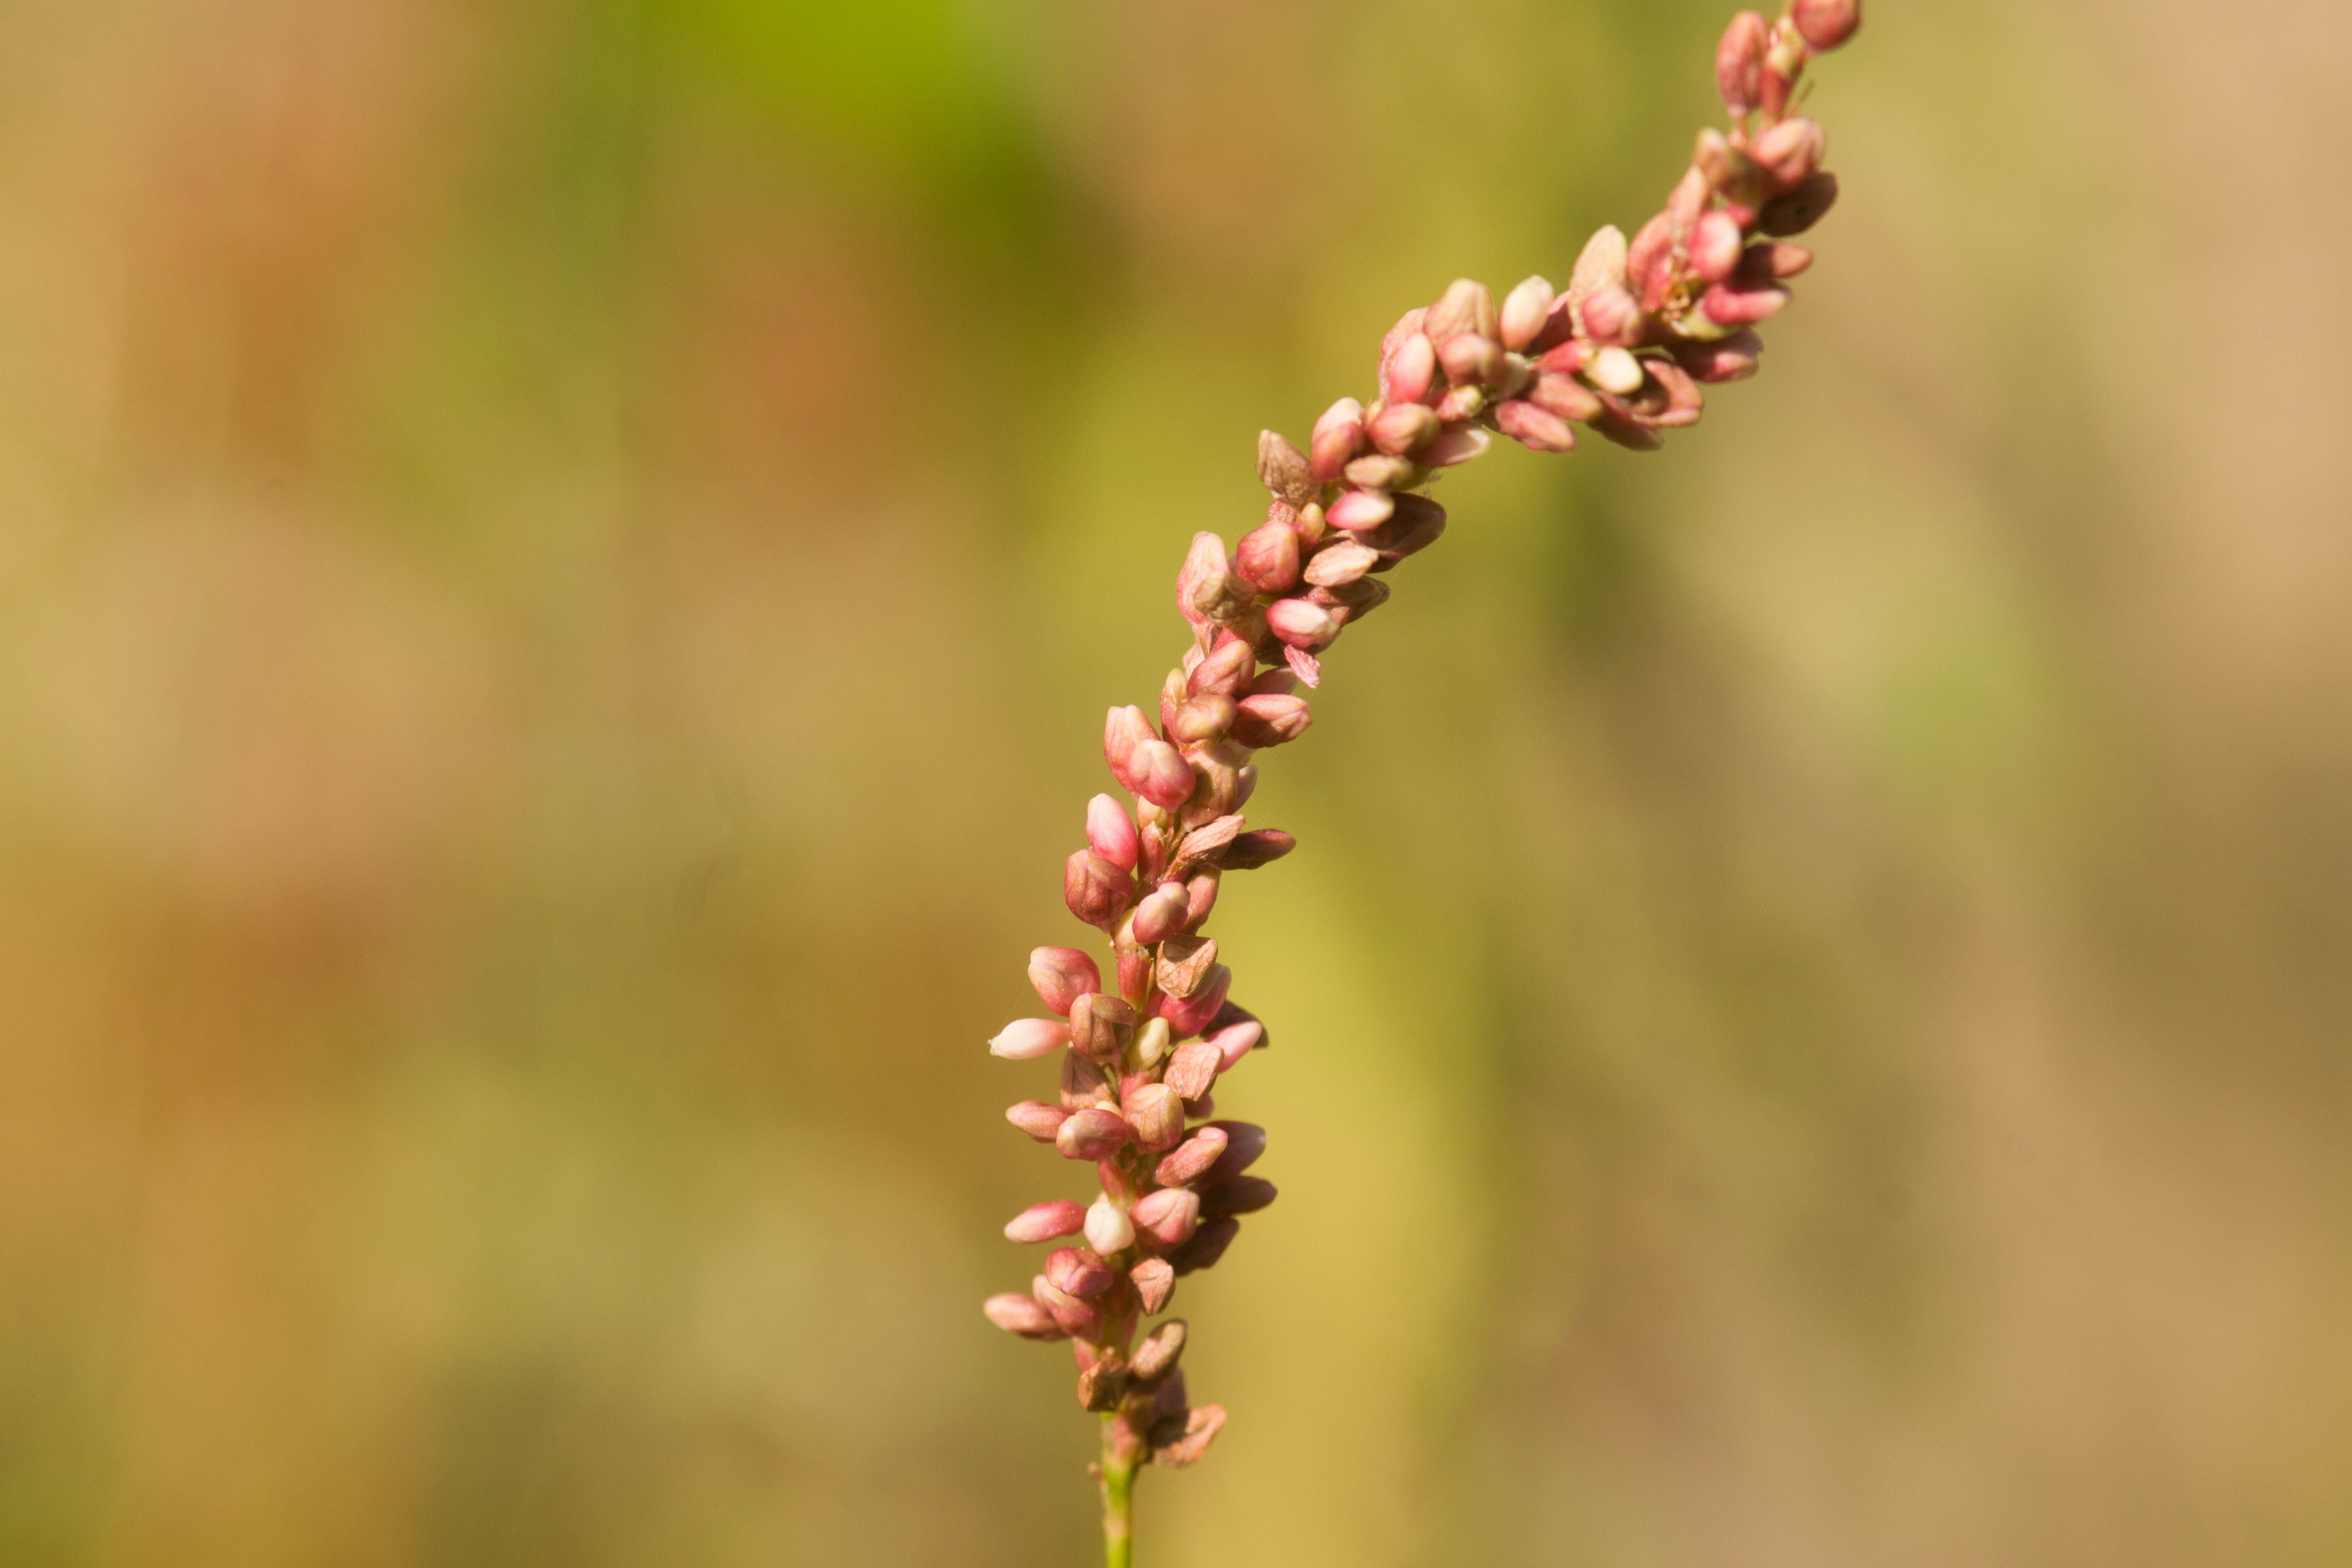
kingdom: Plantae
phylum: Tracheophyta
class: Magnoliopsida
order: Caryophyllales
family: Polygonaceae
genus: Persicaria
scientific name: Persicaria extremiorientalis
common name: Far-eastern smartweed
